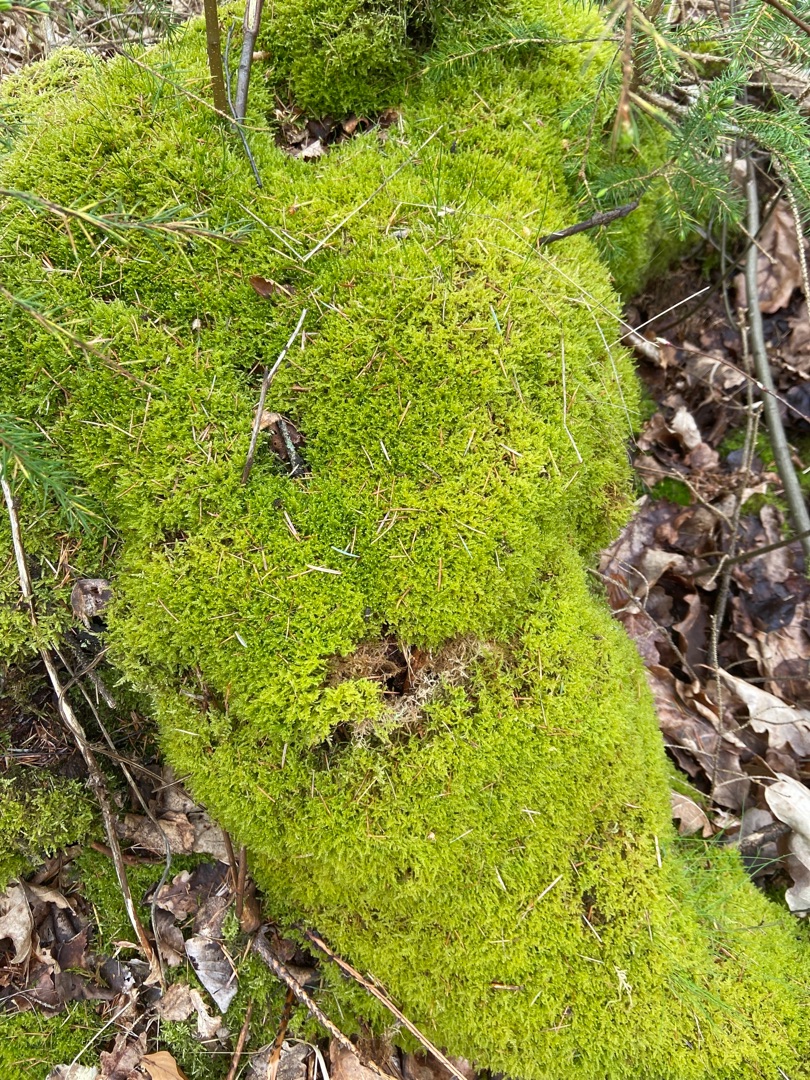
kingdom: Plantae
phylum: Bryophyta
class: Bryopsida
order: Hypnales
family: Hypnaceae
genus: Hypnum
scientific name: Hypnum cupressiforme
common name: Almindelig cypresmos
